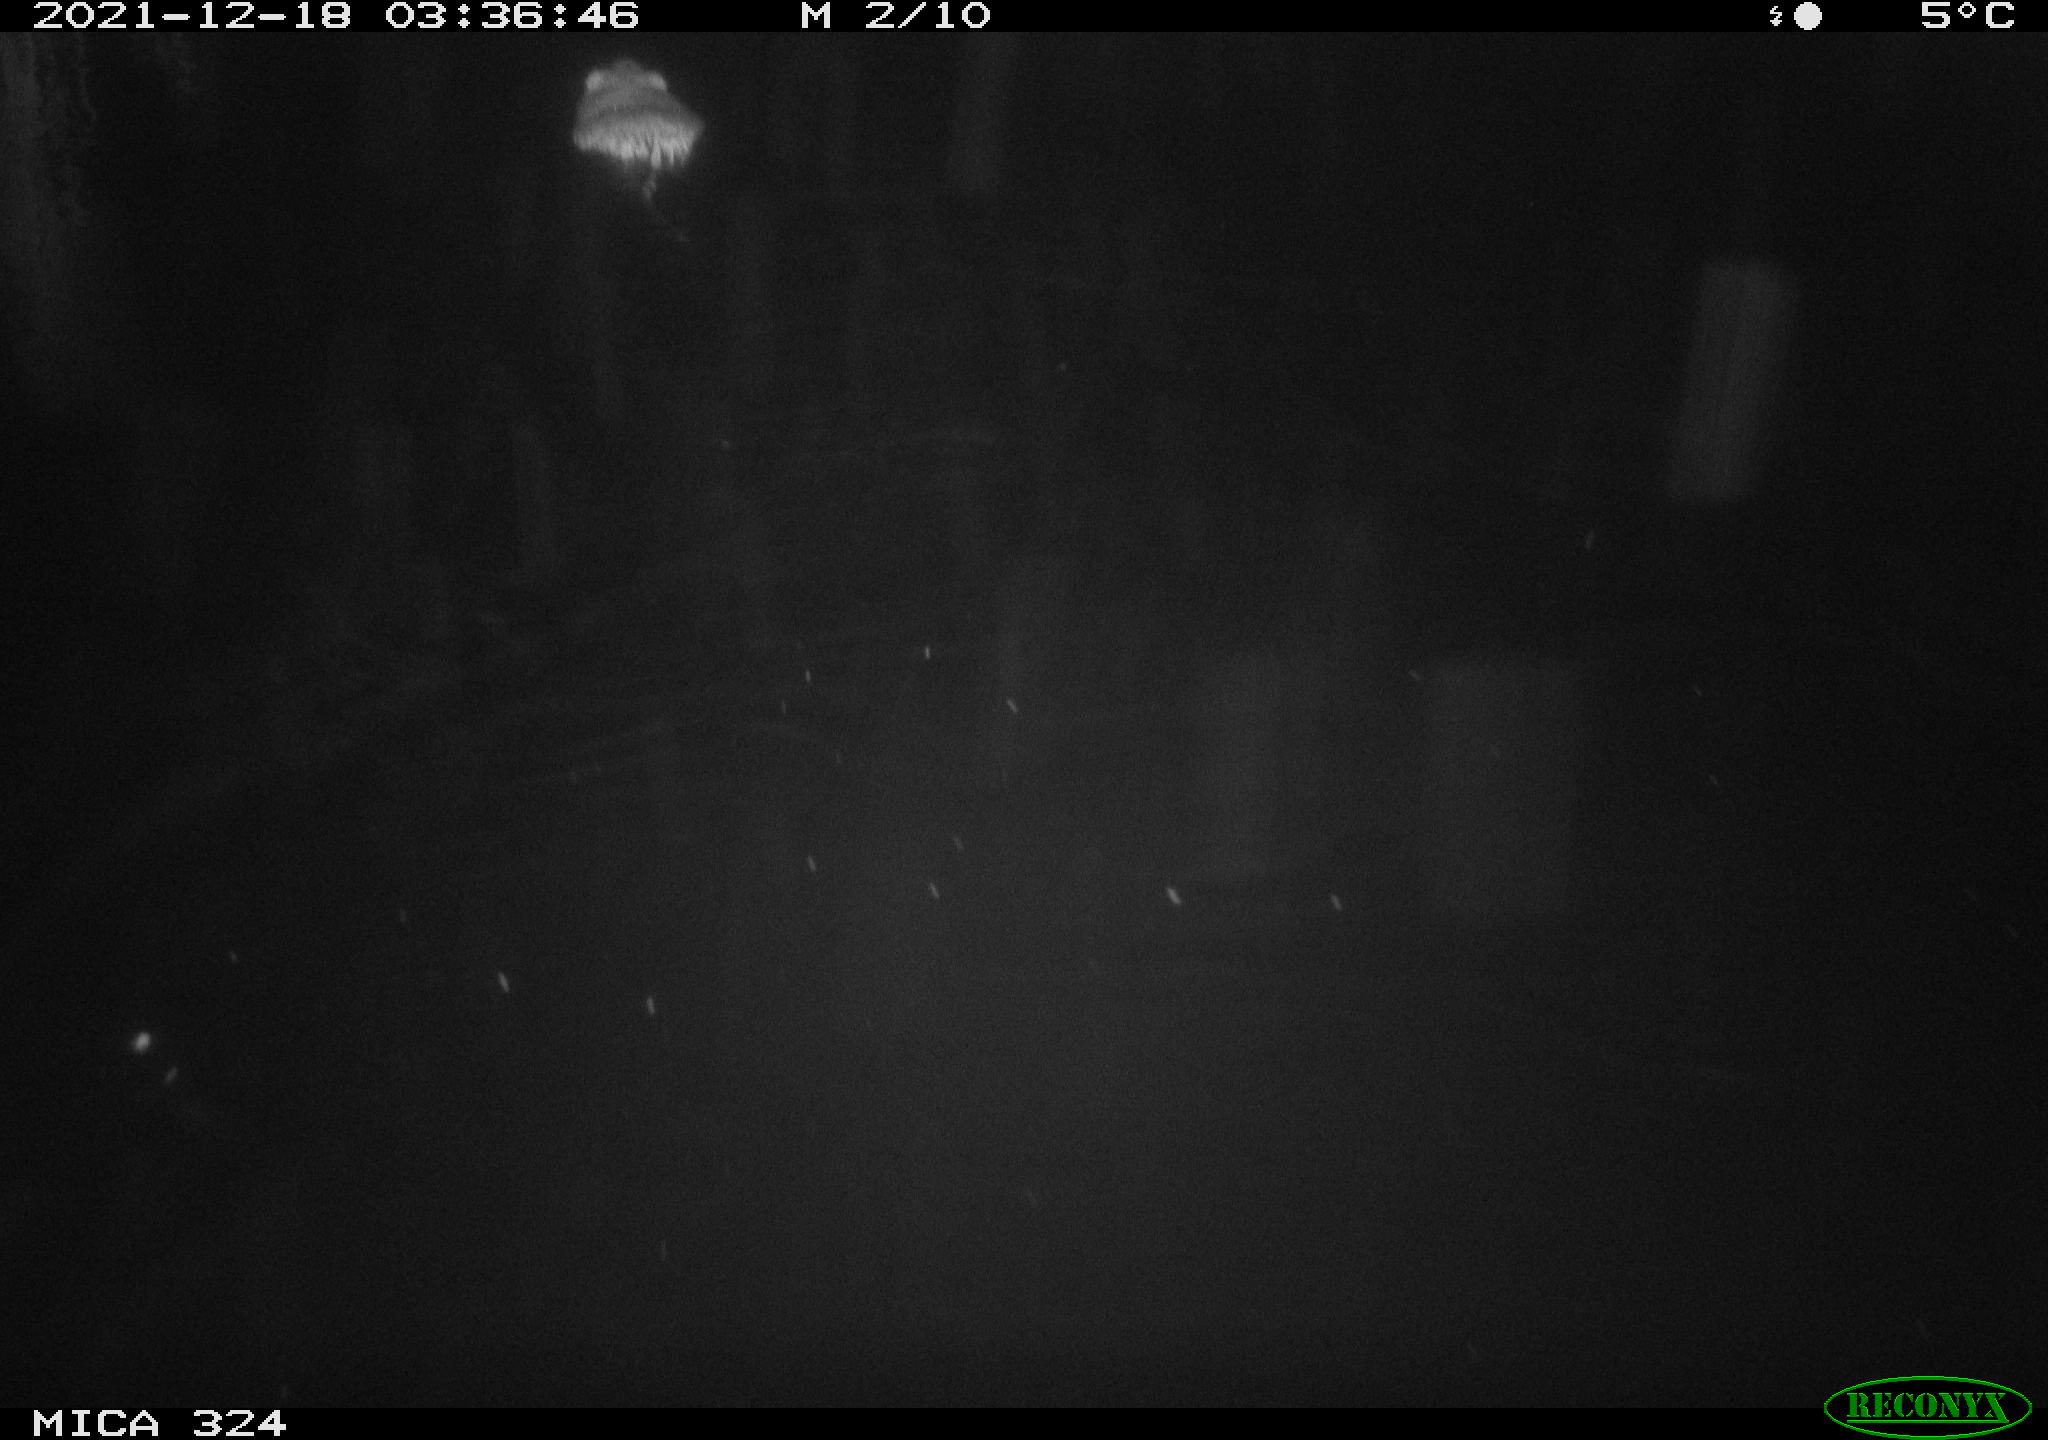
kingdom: Animalia
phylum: Chordata
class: Mammalia
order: Rodentia
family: Cricetidae
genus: Ondatra
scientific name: Ondatra zibethicus
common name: Muskrat
